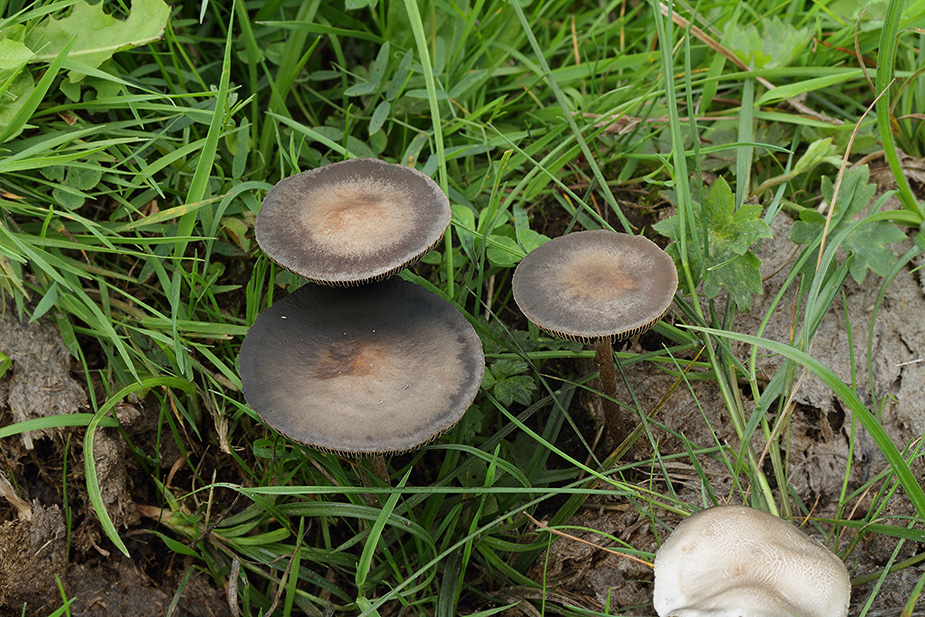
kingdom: Fungi
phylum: Basidiomycota
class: Agaricomycetes
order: Agaricales
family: Bolbitiaceae
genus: Panaeolus
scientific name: Panaeolus cinctulus
